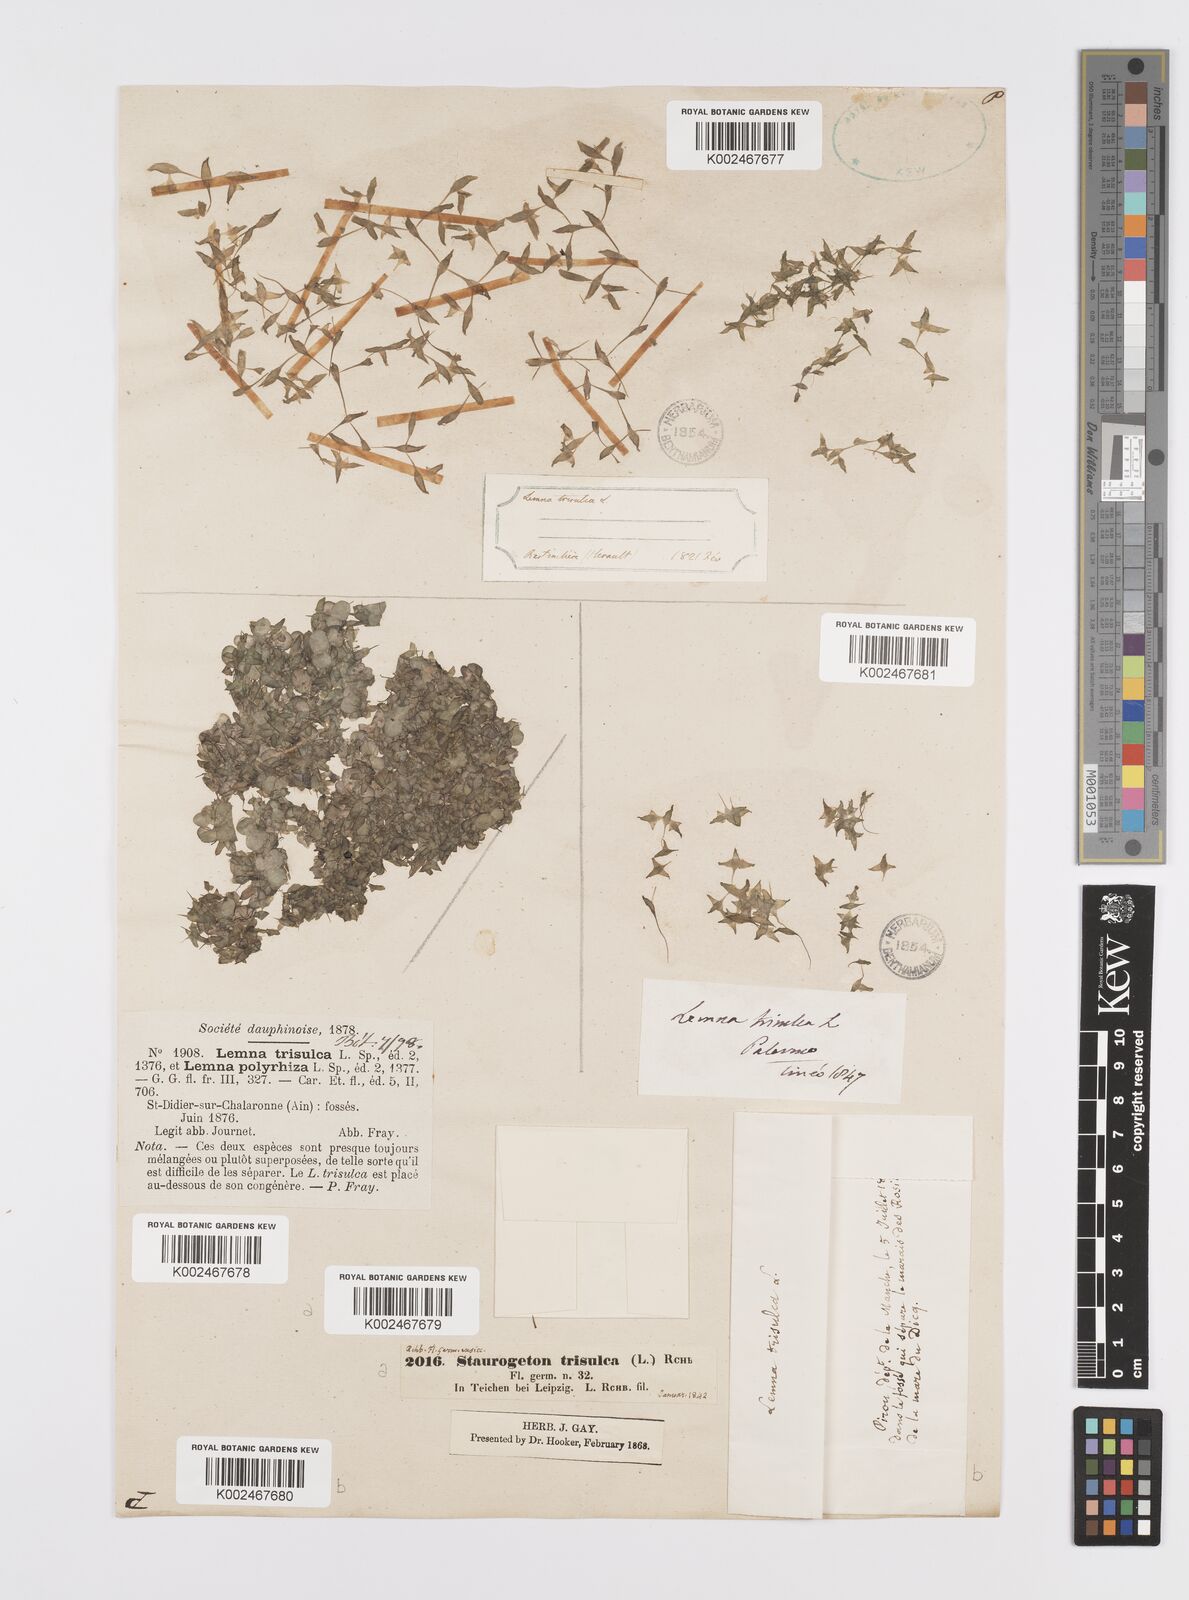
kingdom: Plantae
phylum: Tracheophyta
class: Liliopsida
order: Alismatales
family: Araceae
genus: Lemna
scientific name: Lemna trisulca
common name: Ivy-leaved duckweed
